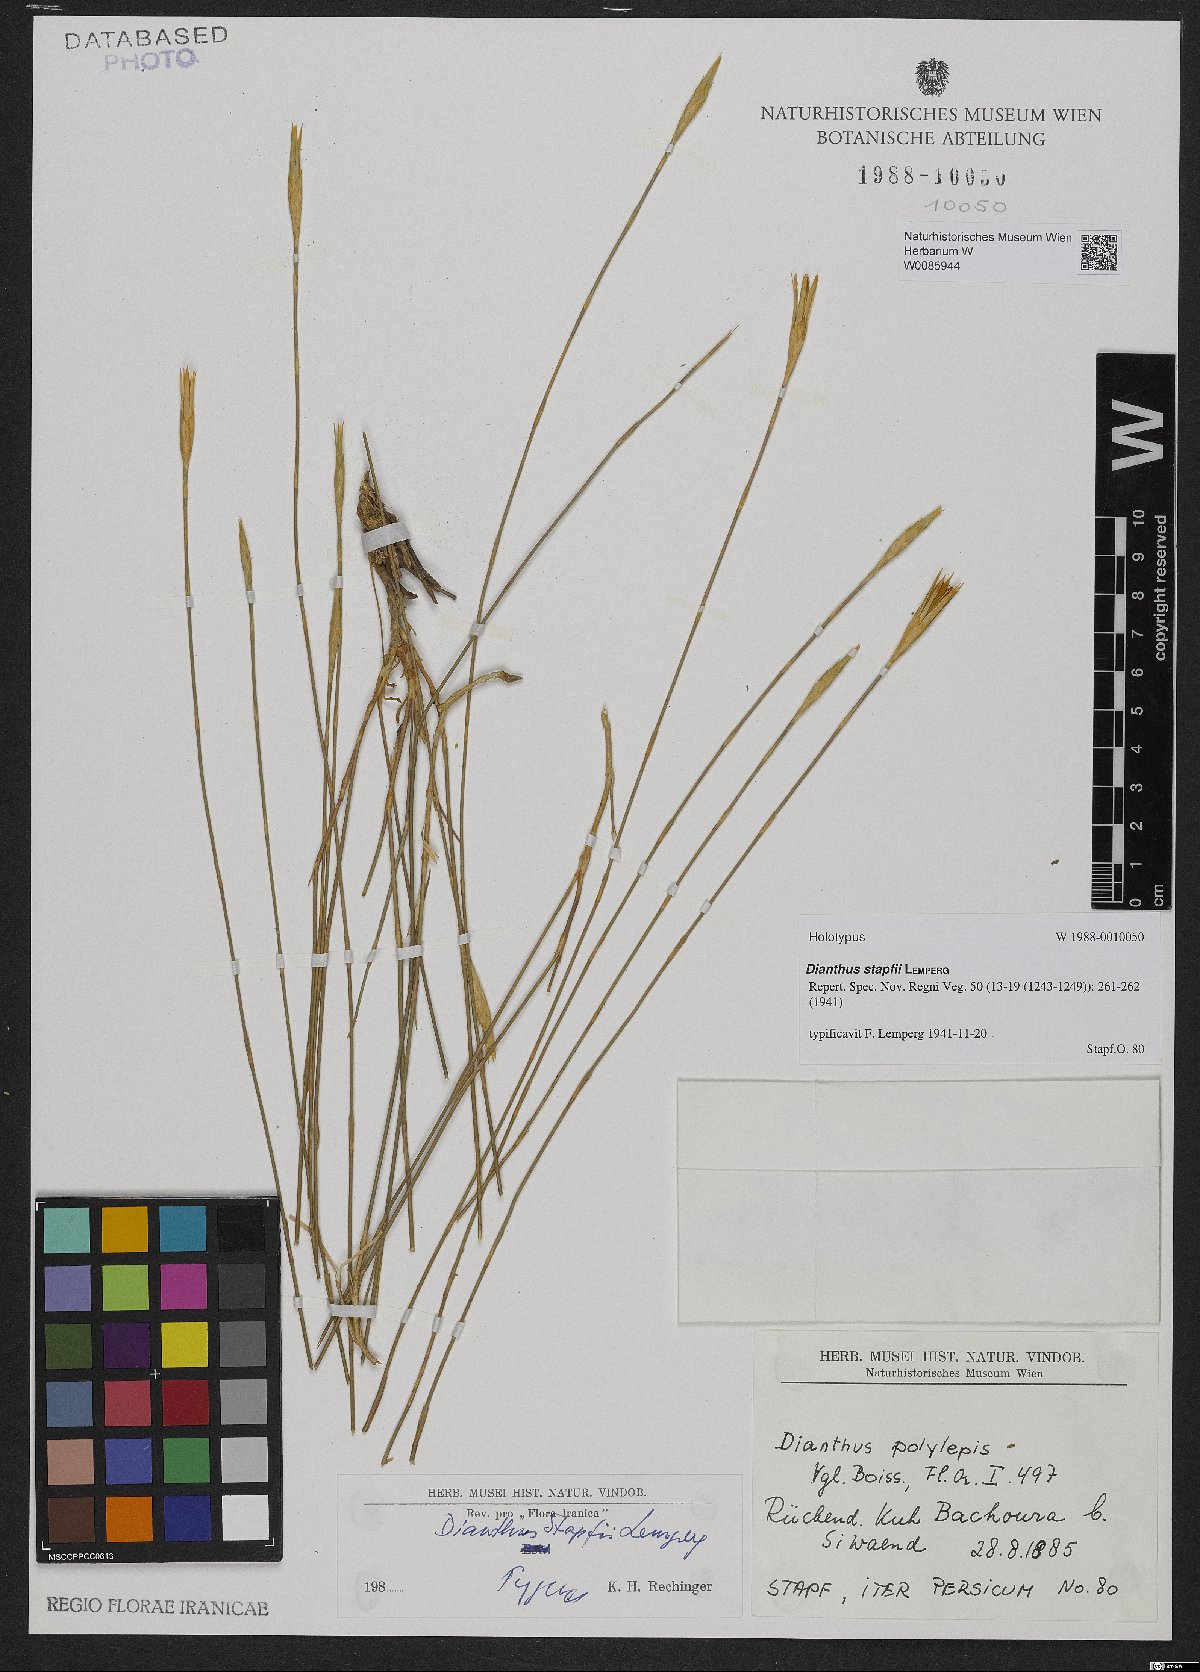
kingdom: Plantae
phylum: Tracheophyta
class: Magnoliopsida
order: Caryophyllales
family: Caryophyllaceae
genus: Dianthus
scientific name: Dianthus stapfii
